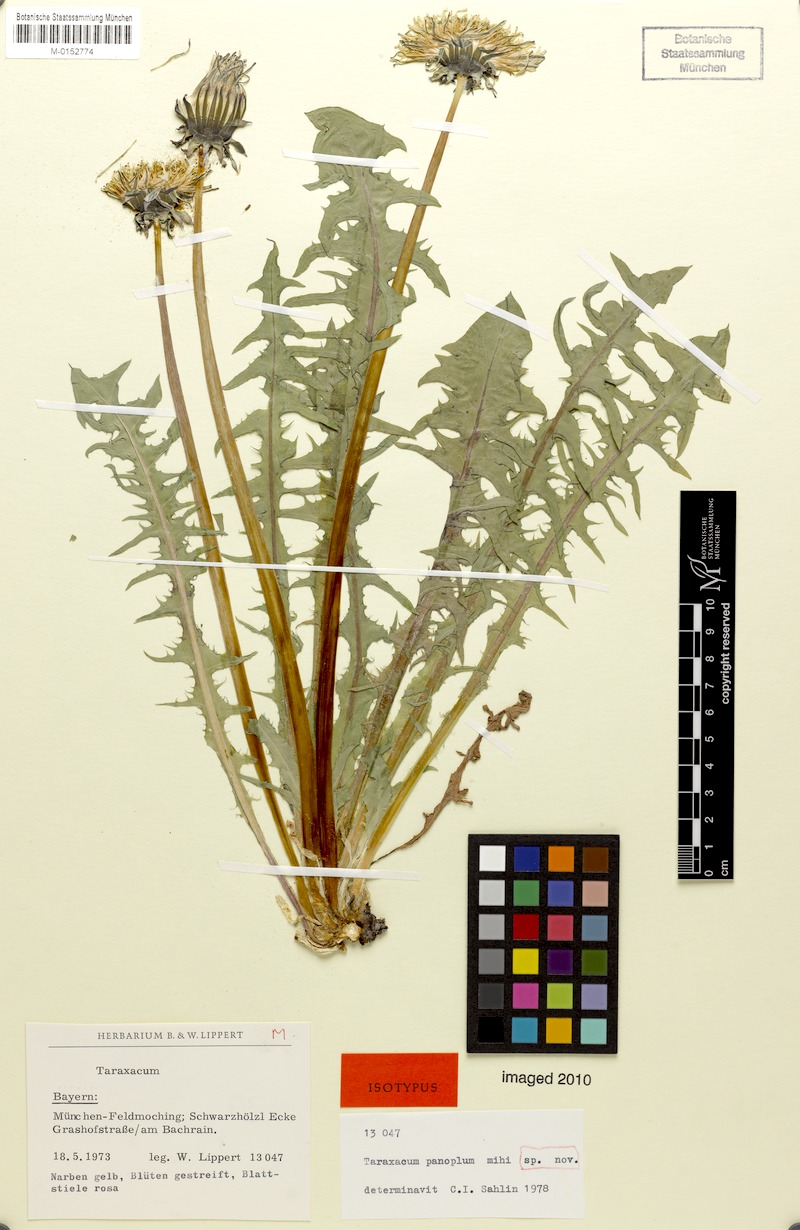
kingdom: Plantae
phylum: Tracheophyta
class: Magnoliopsida
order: Asterales
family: Asteraceae
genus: Taraxacum
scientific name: Taraxacum panoplum
